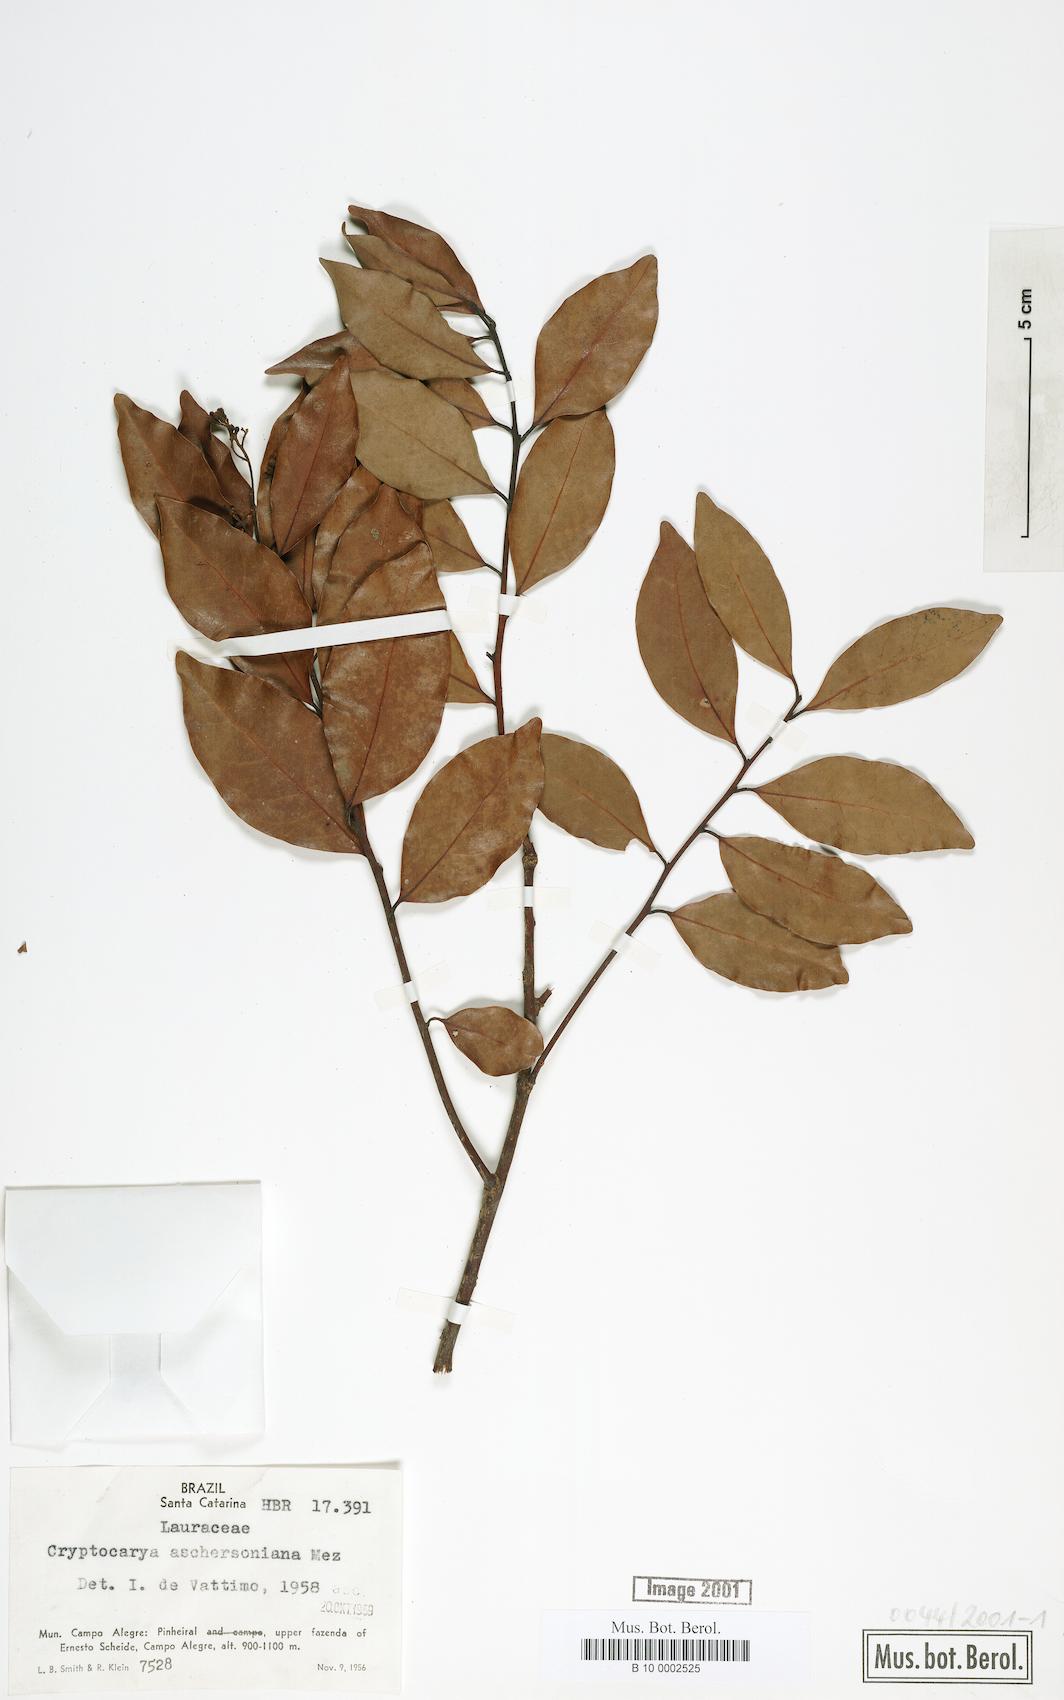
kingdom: Plantae
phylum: Tracheophyta
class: Magnoliopsida
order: Laurales
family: Lauraceae
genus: Cryptocarya
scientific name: Cryptocarya aschersoniana
